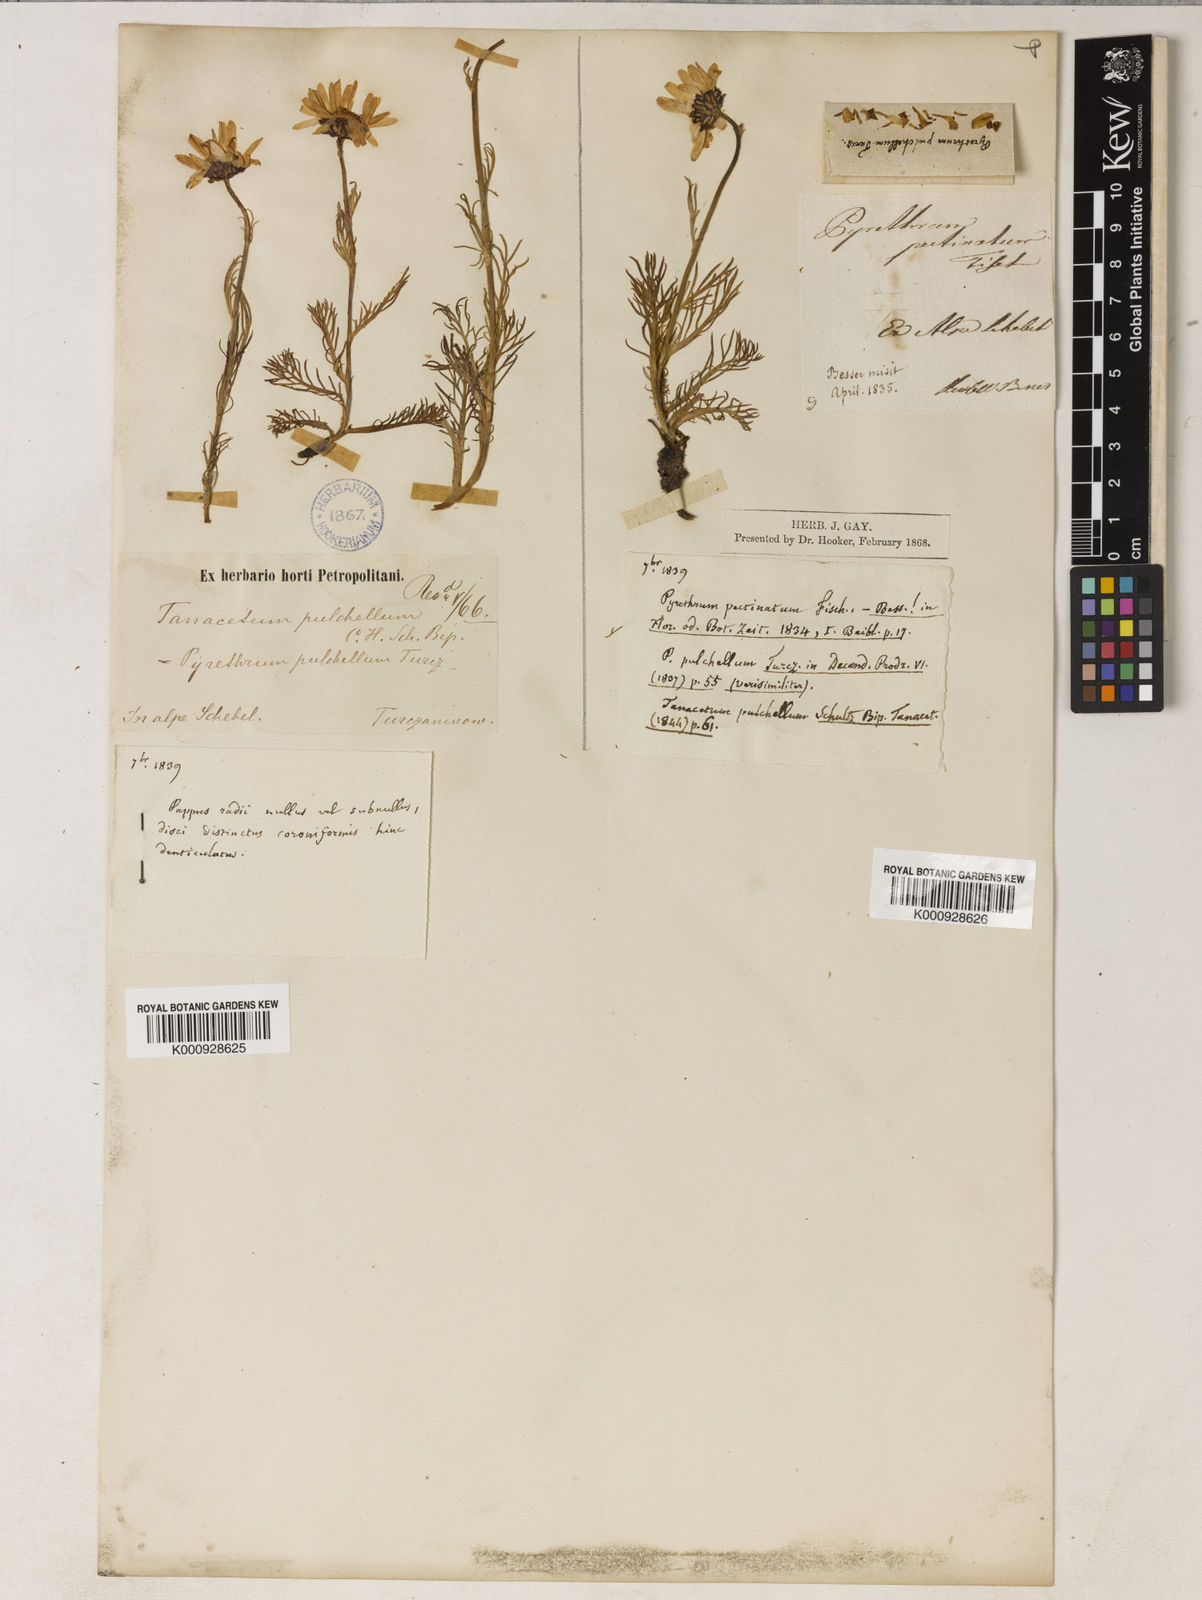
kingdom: Plantae
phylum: Tracheophyta
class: Magnoliopsida
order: Asterales
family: Asteraceae
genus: Tanacetum
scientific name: Tanacetum pulchrum
